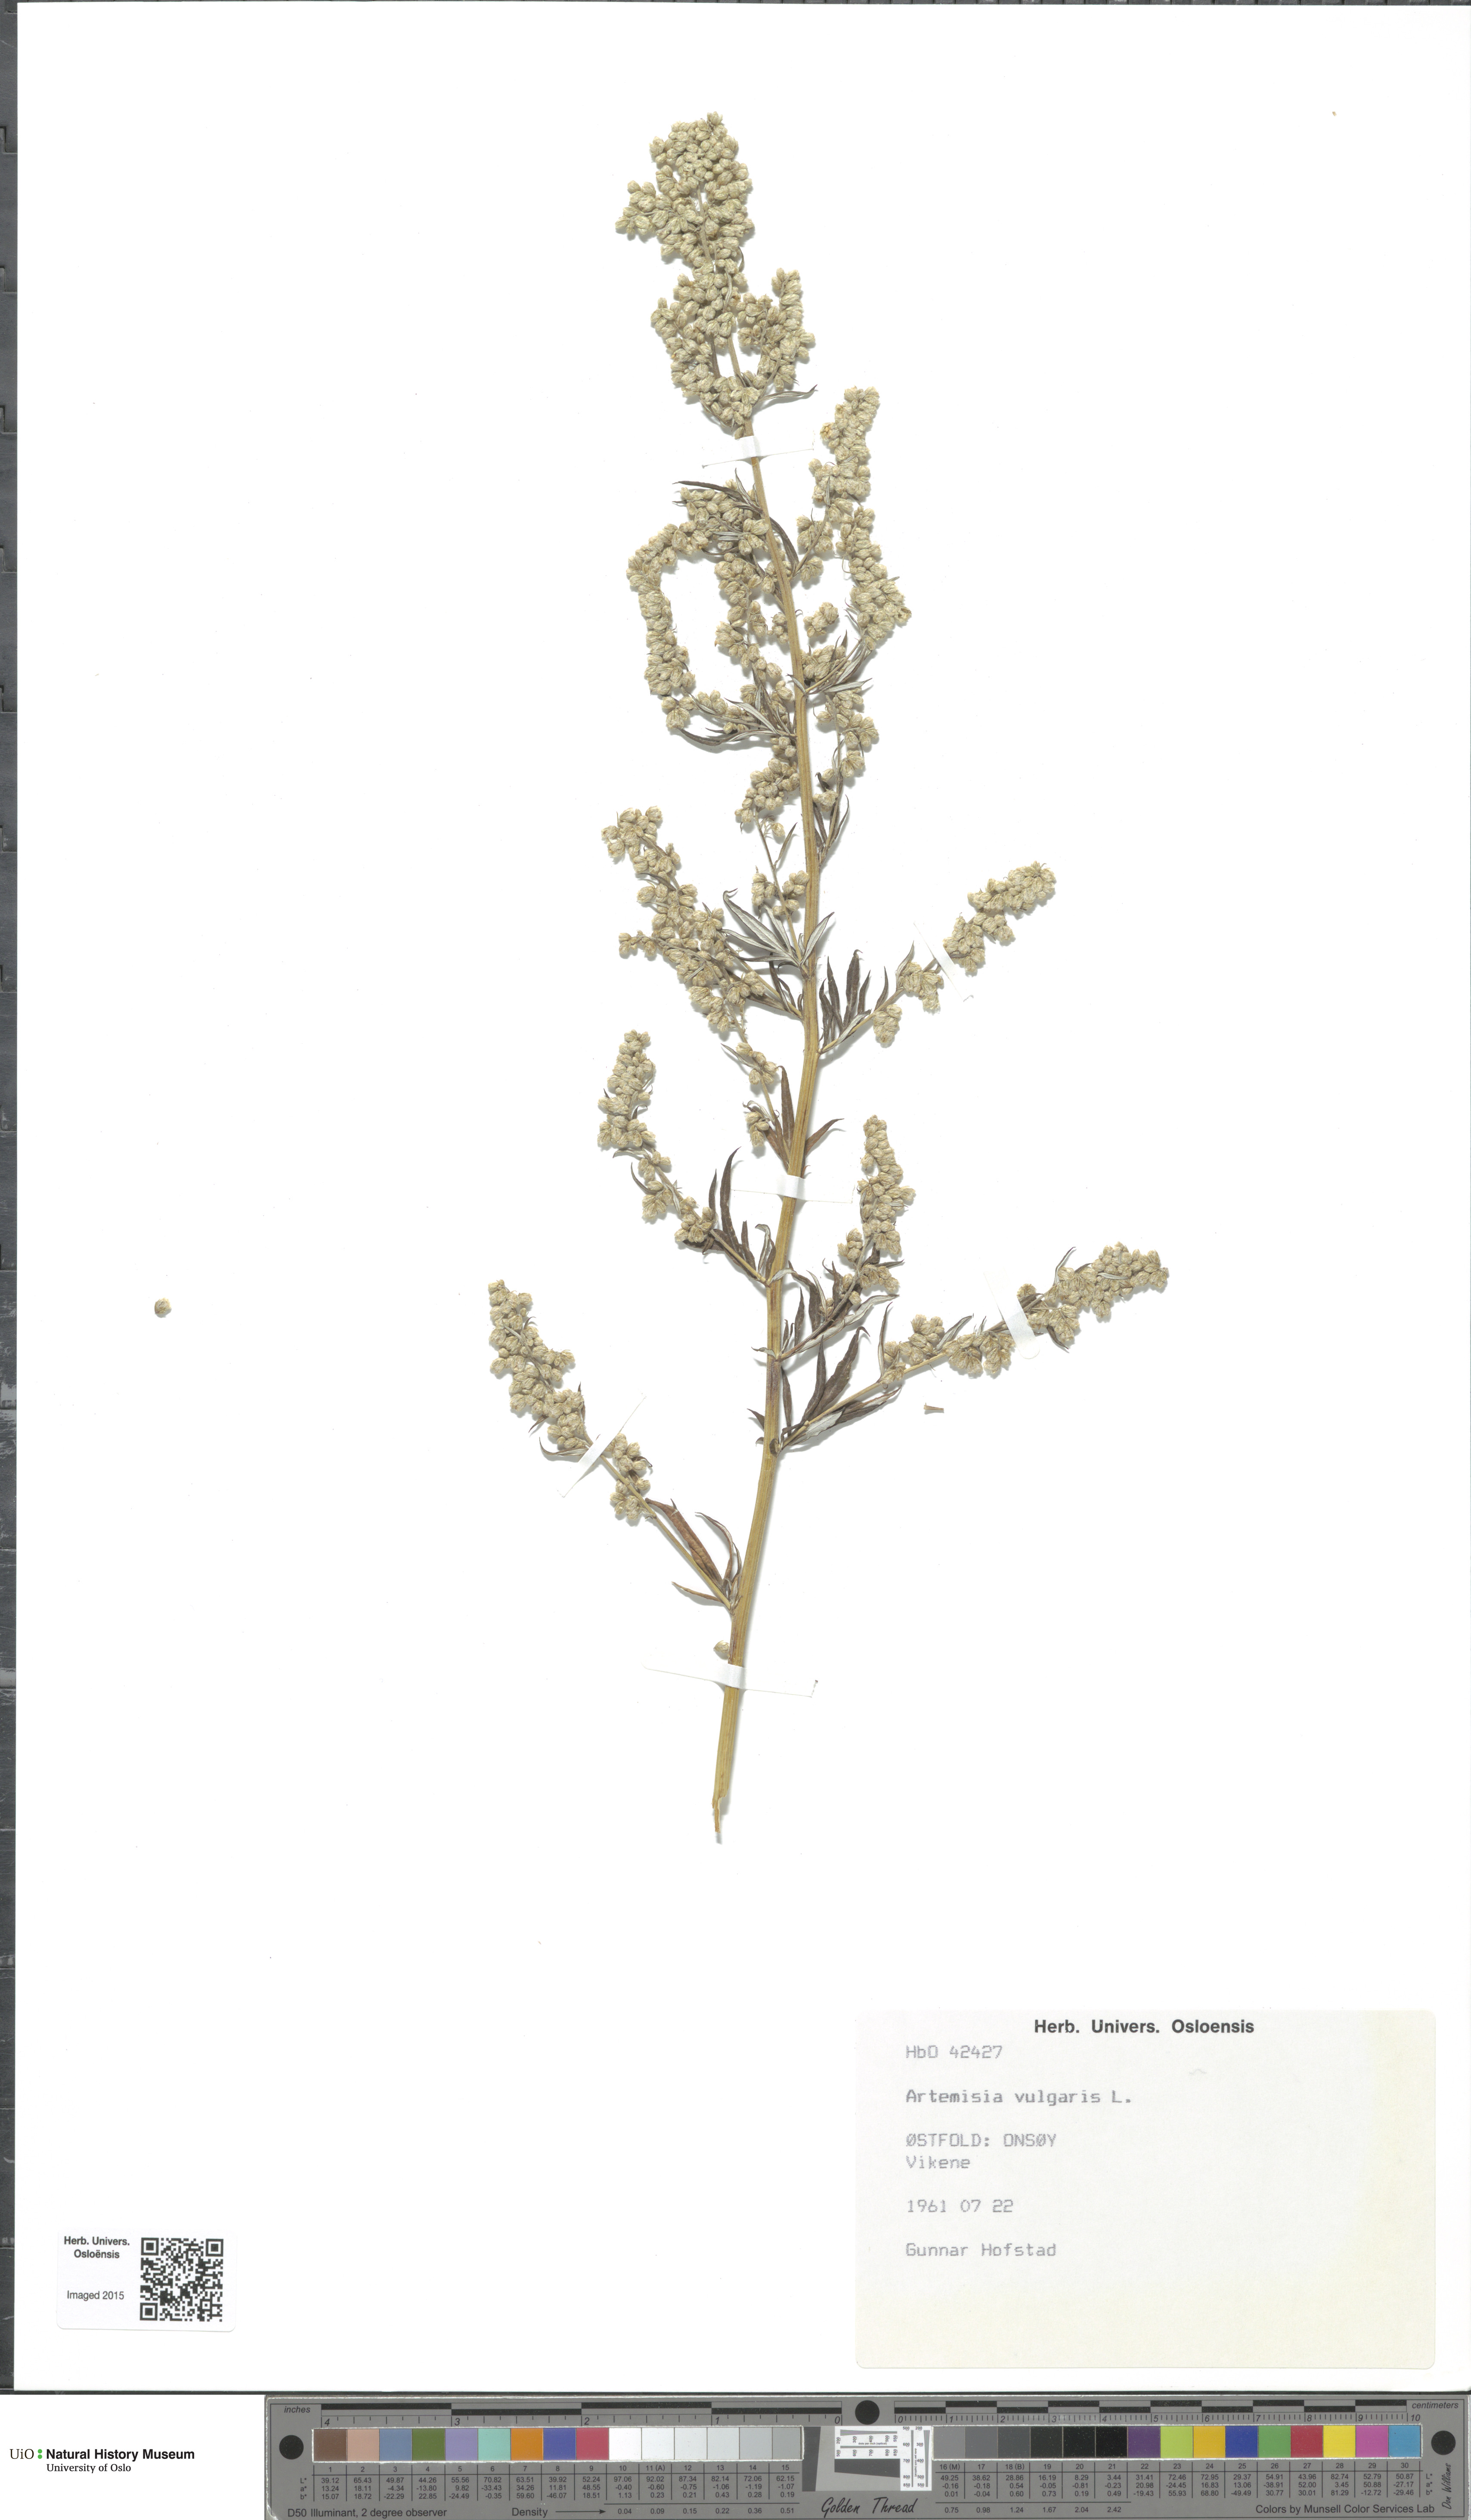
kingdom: Plantae
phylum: Tracheophyta
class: Magnoliopsida
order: Asterales
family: Asteraceae
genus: Artemisia
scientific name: Artemisia vulgaris
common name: Mugwort
